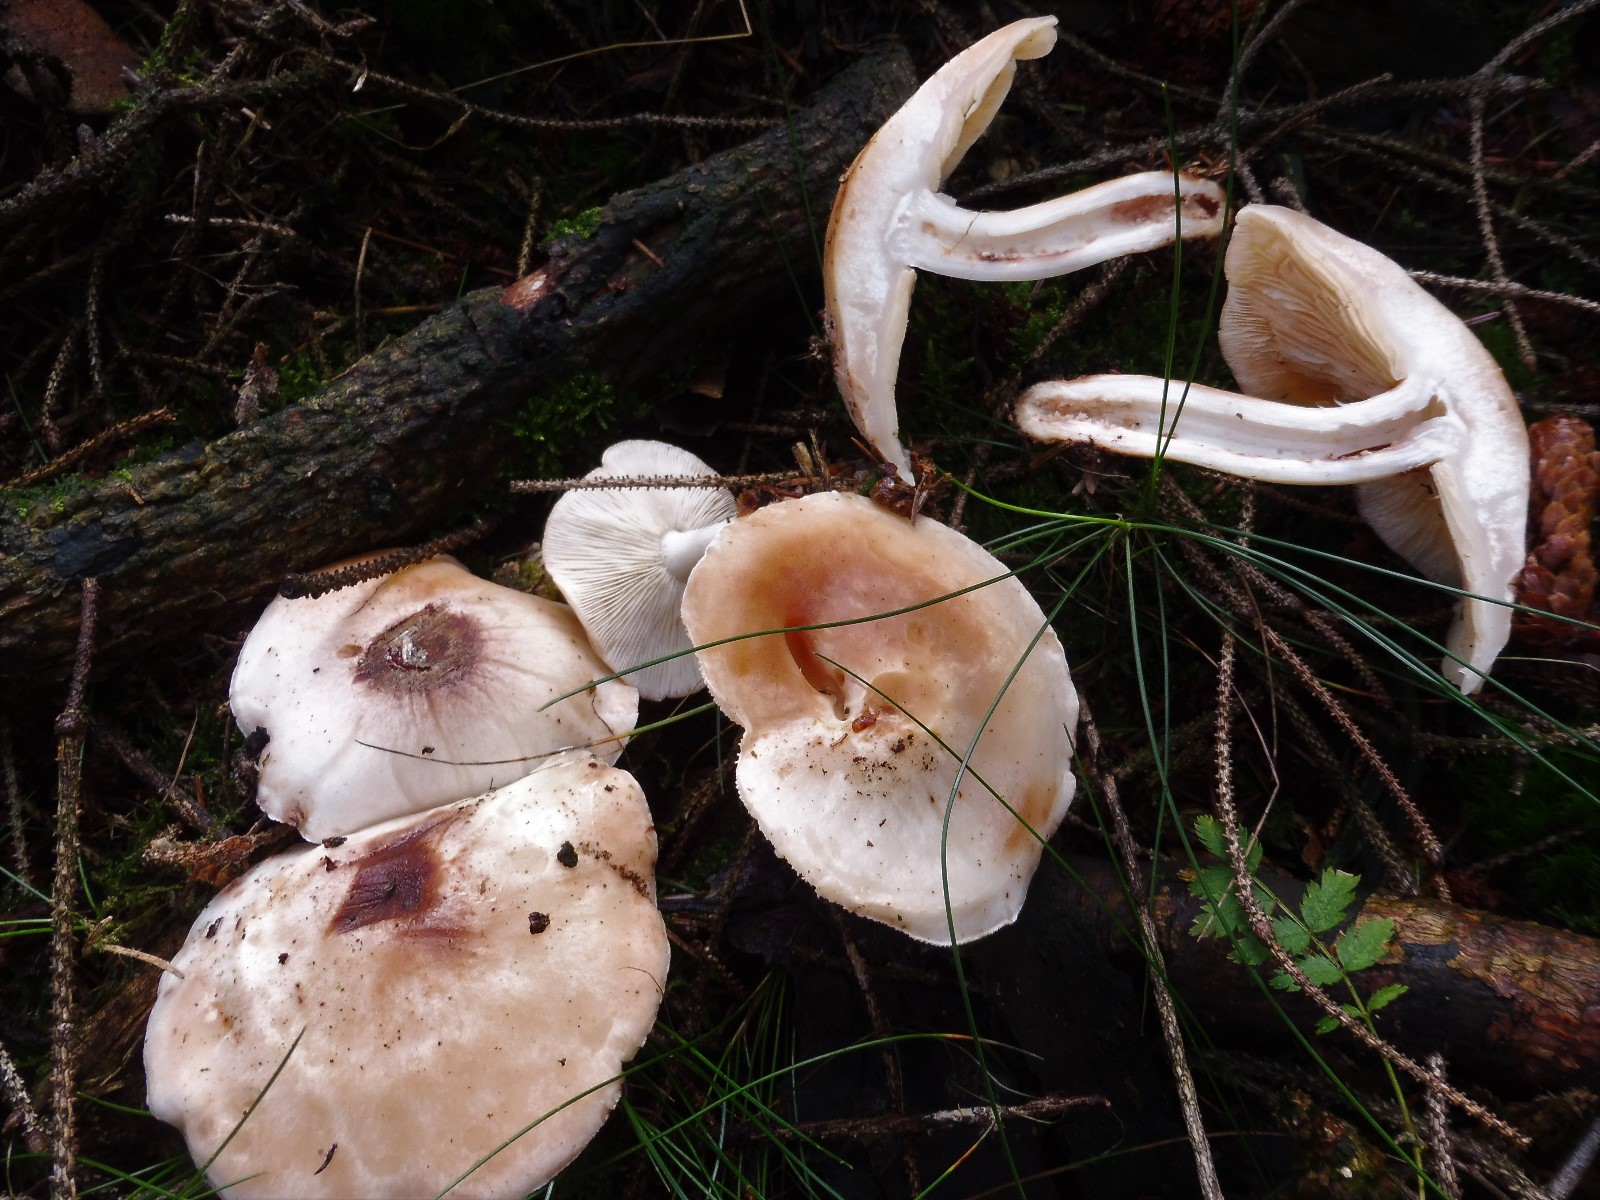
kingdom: Fungi
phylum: Basidiomycota
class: Agaricomycetes
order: Agaricales
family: Omphalotaceae
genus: Rhodocollybia
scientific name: Rhodocollybia maculata
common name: plettet fladhat
